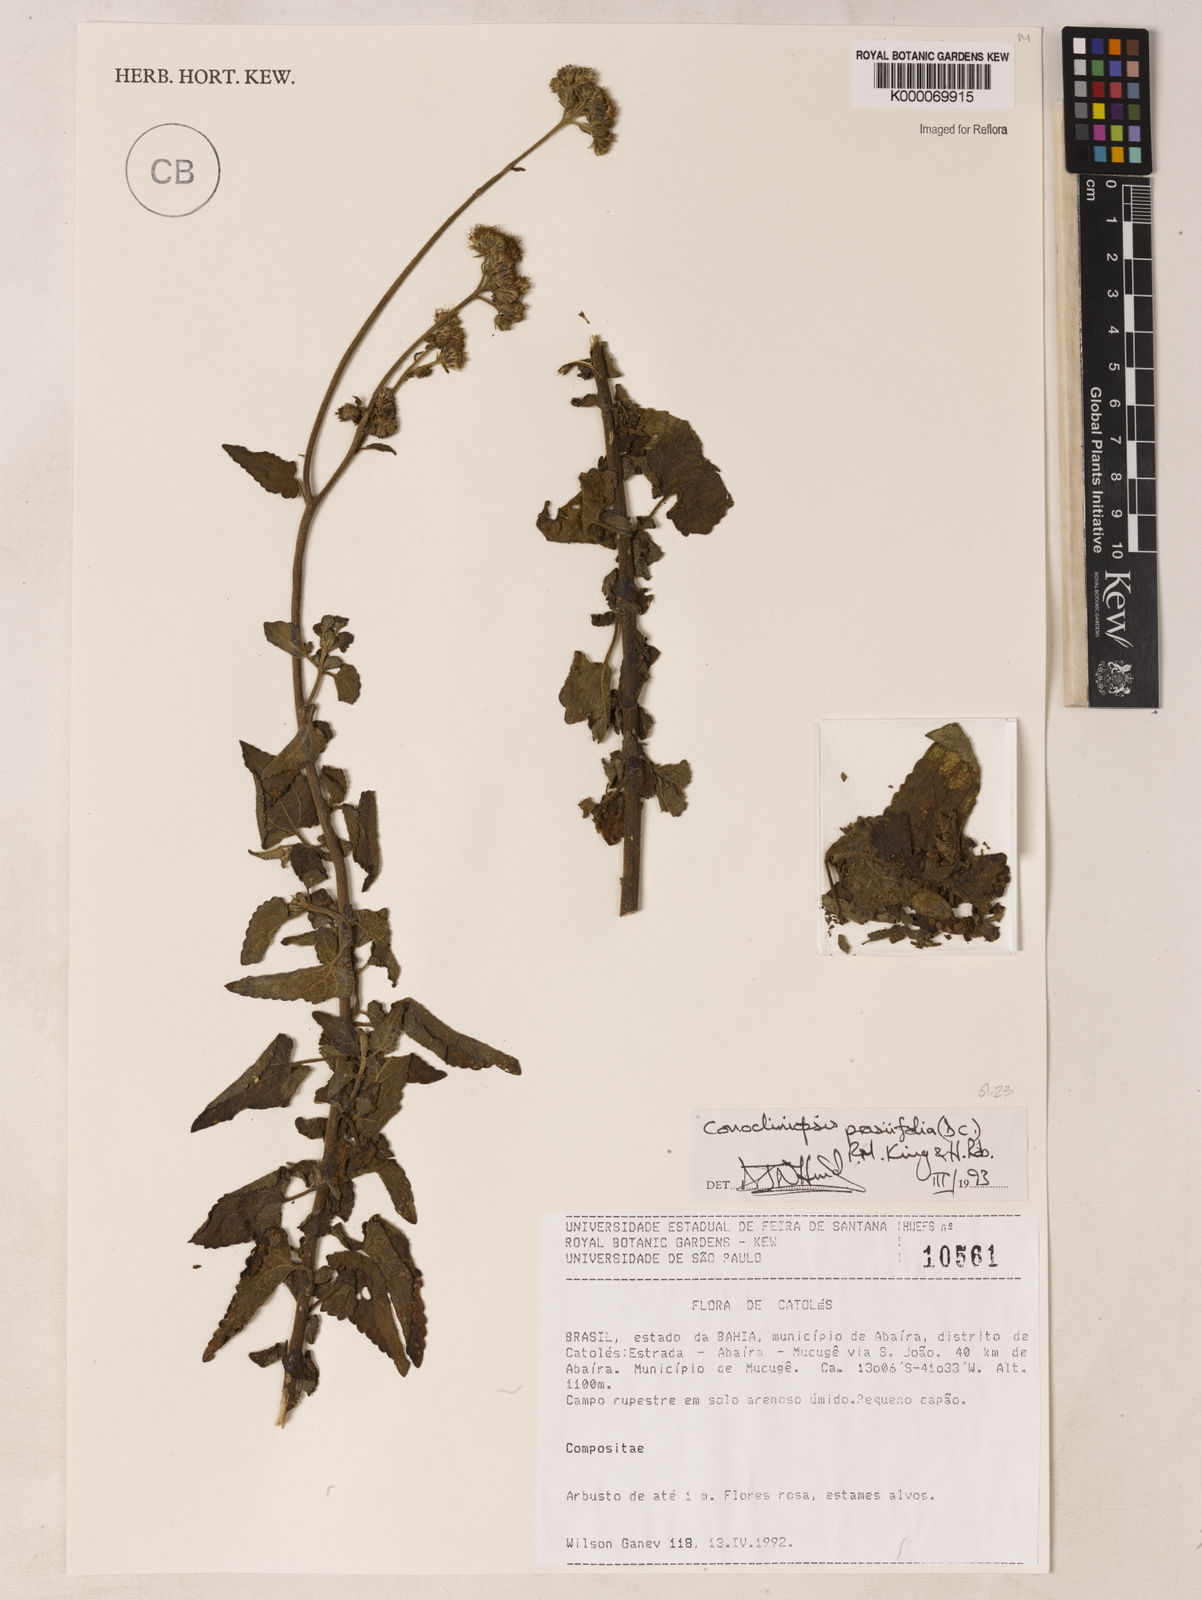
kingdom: Plantae
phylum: Tracheophyta
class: Magnoliopsida
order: Asterales
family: Asteraceae
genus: Conocliniopsis
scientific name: Conocliniopsis
